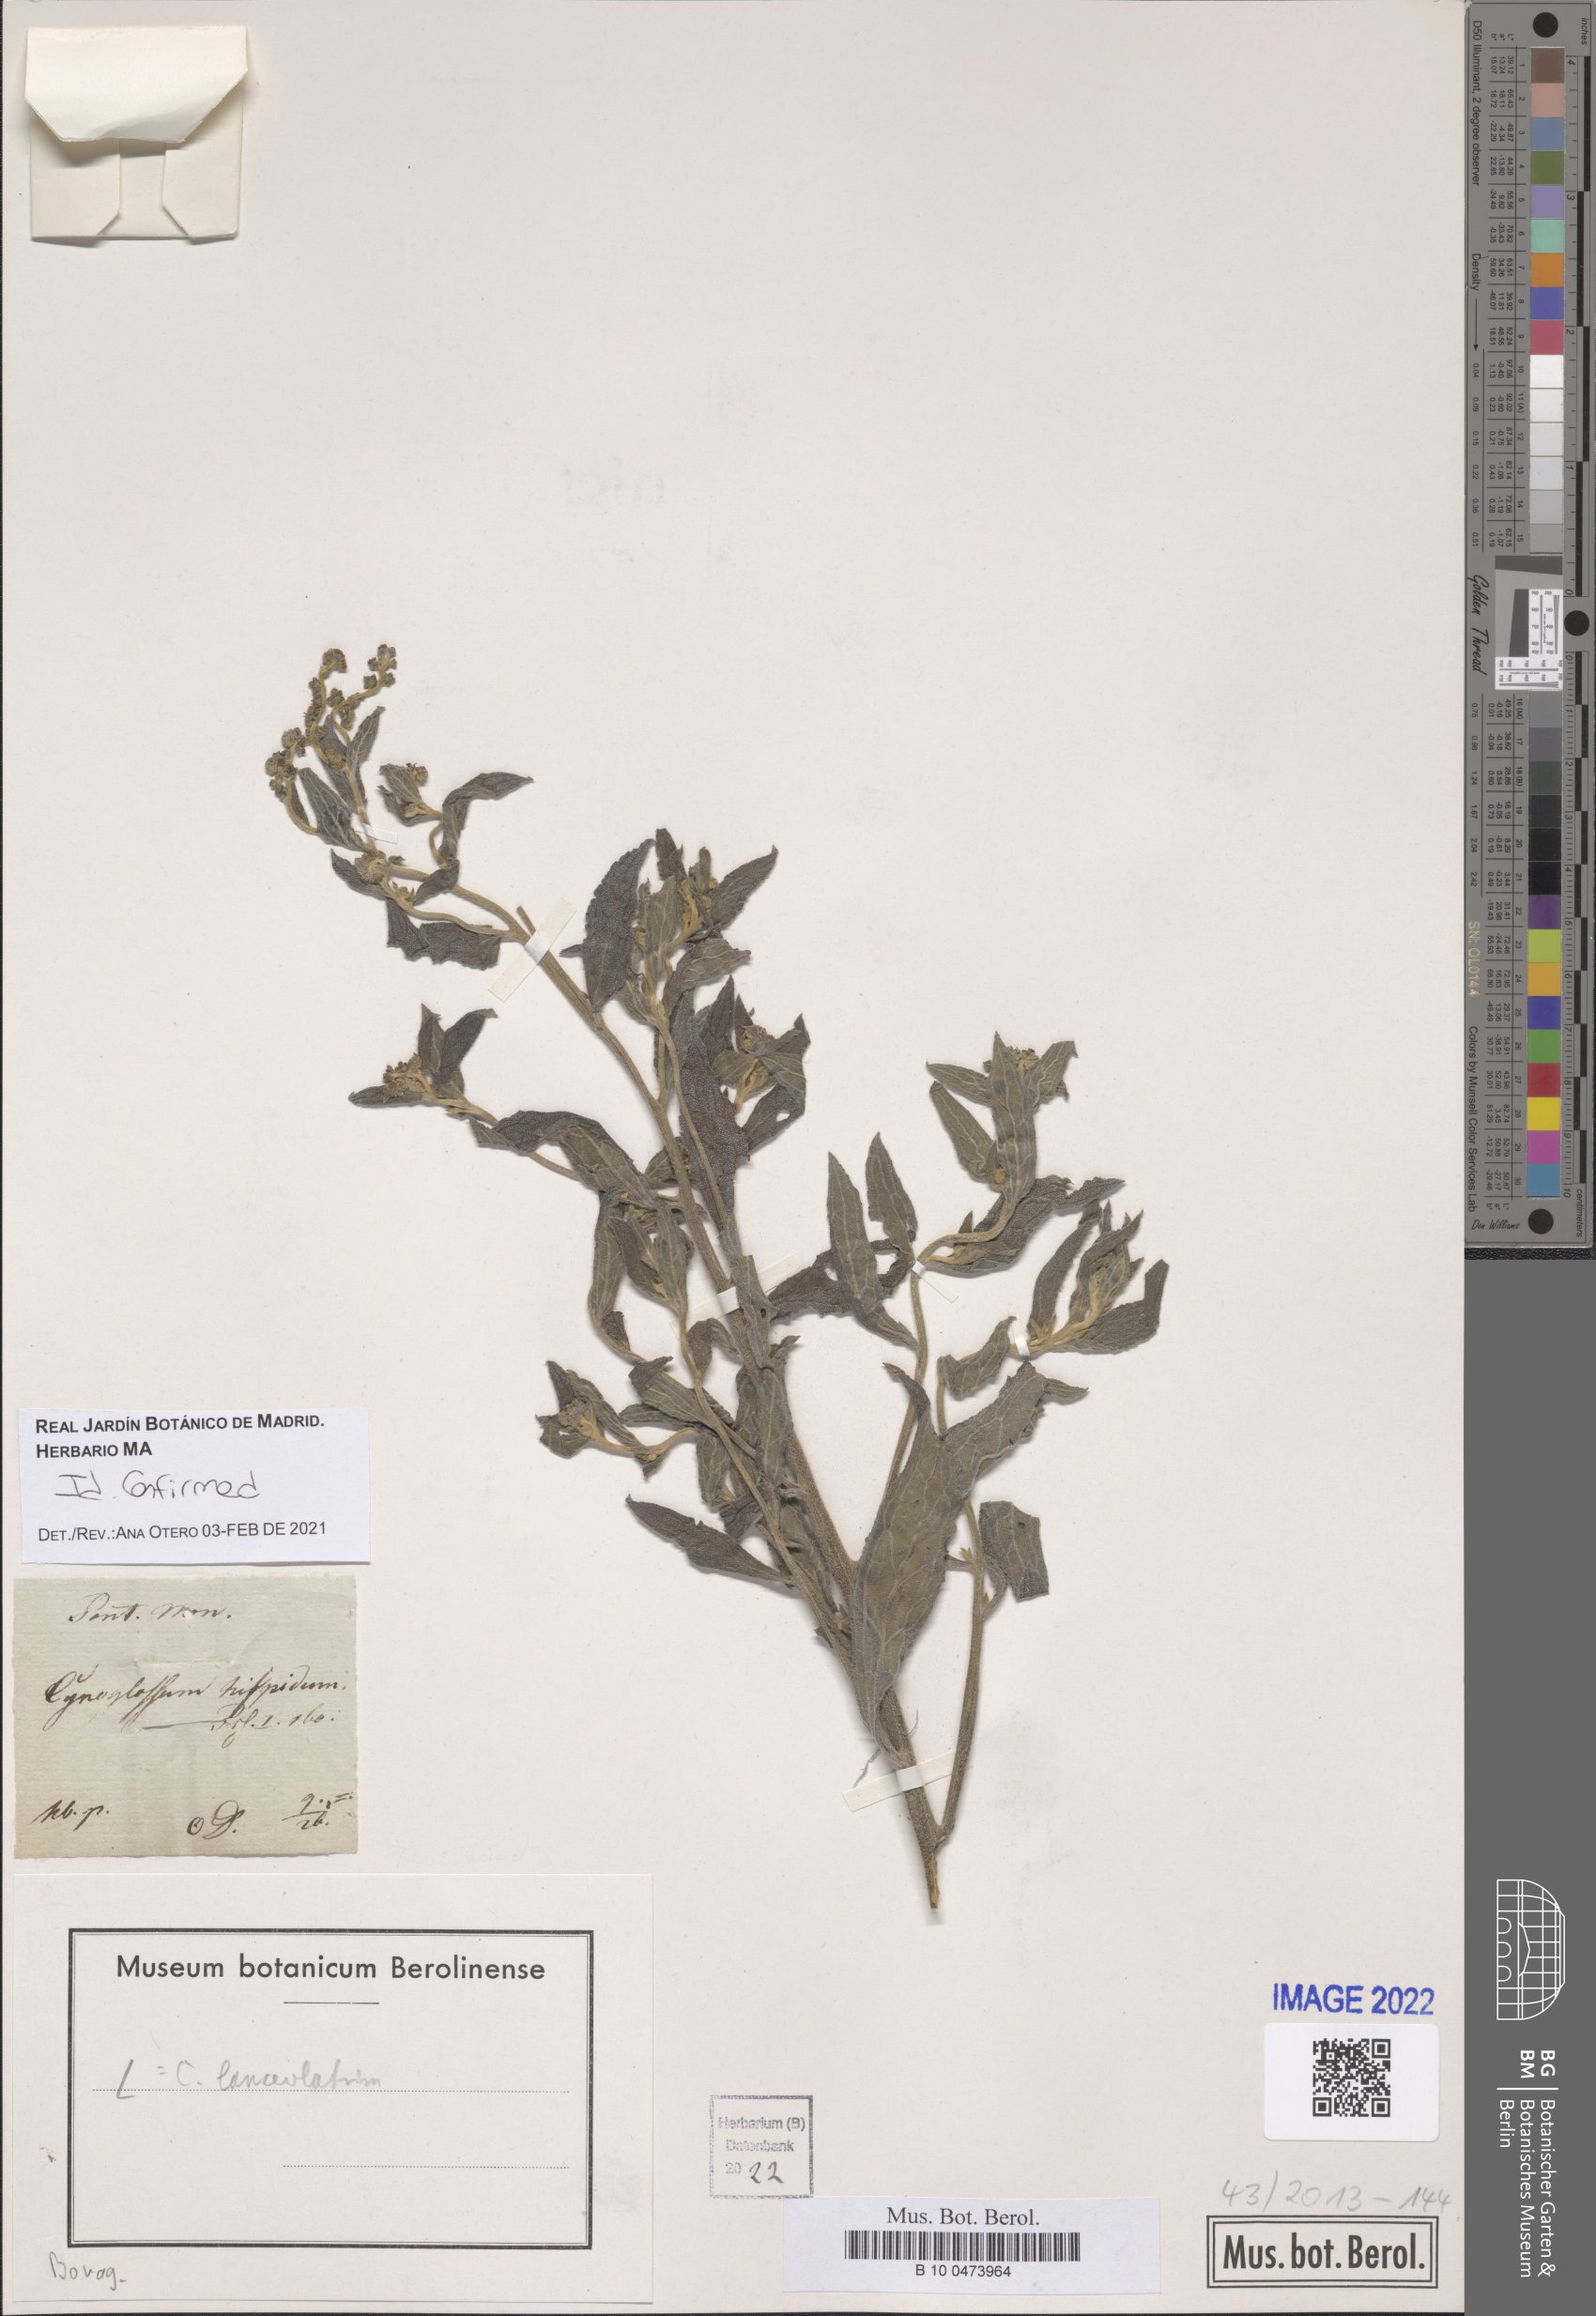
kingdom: Plantae
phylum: Tracheophyta
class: Magnoliopsida
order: Boraginales
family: Boraginaceae
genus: Paracynoglossum
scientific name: Paracynoglossum lanceolatum
